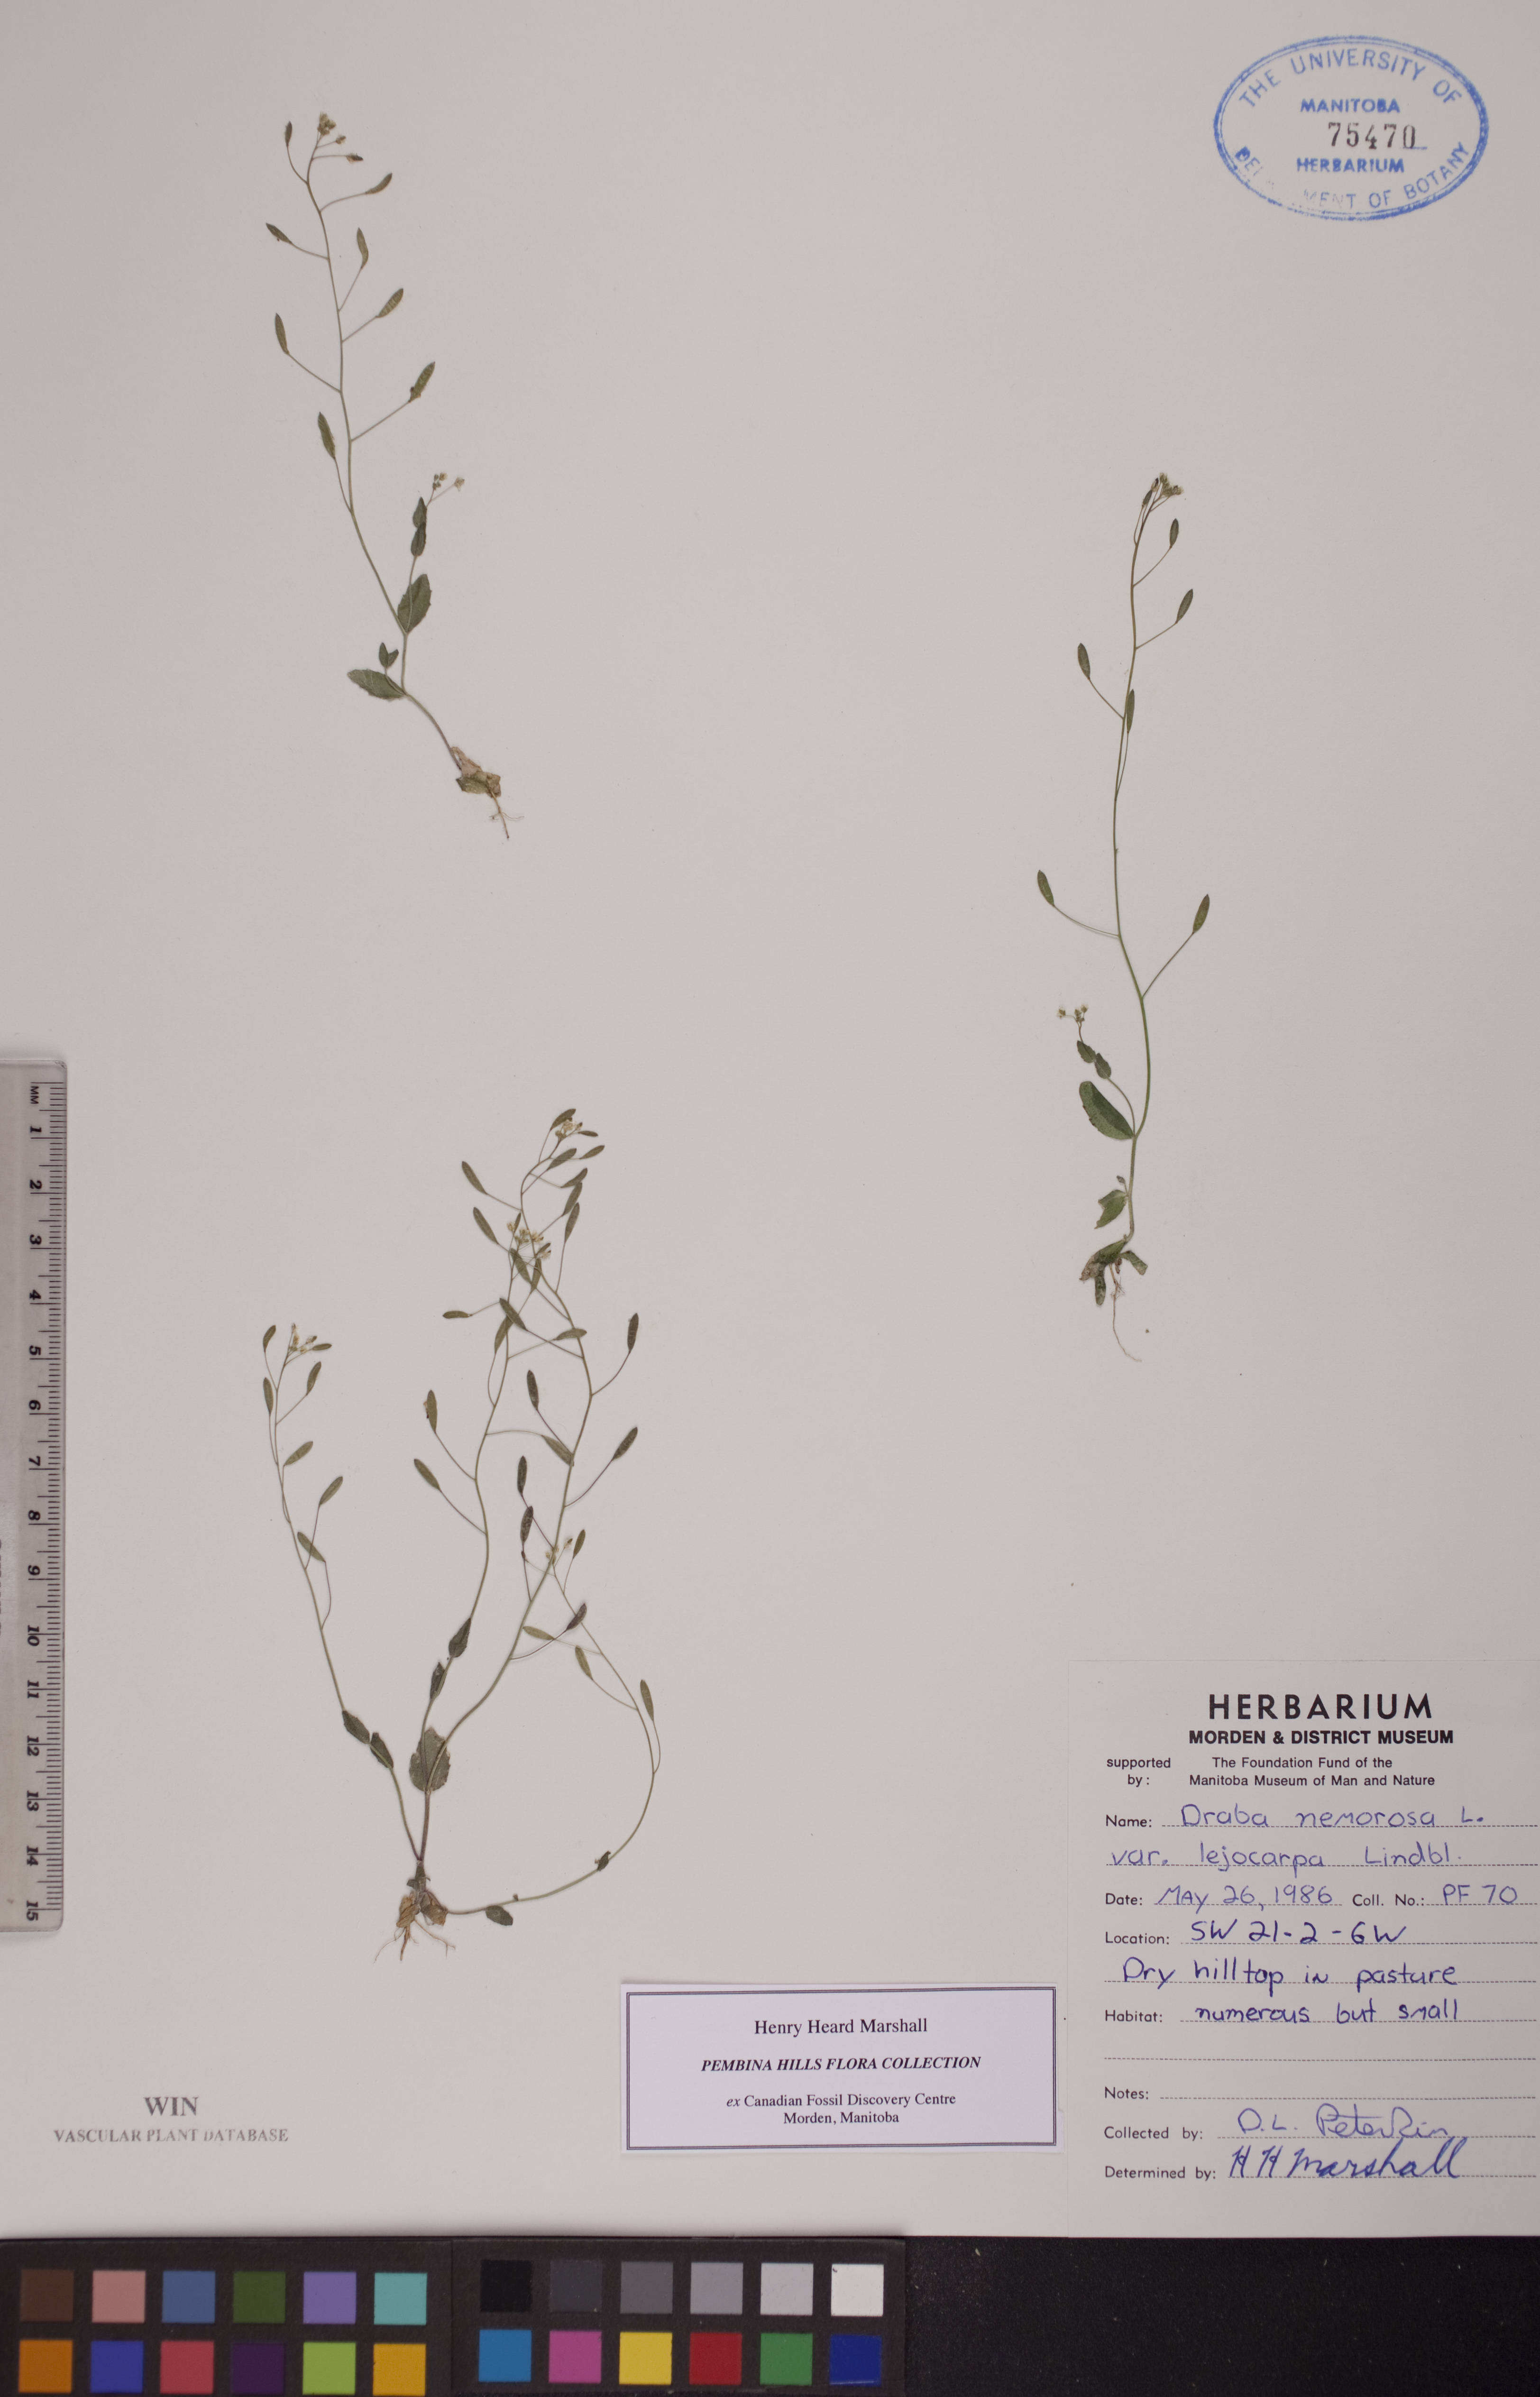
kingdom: Plantae
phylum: Tracheophyta
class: Magnoliopsida
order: Brassicales
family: Brassicaceae
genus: Draba
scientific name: Draba nemorosa
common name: Wood whitlow-grass
